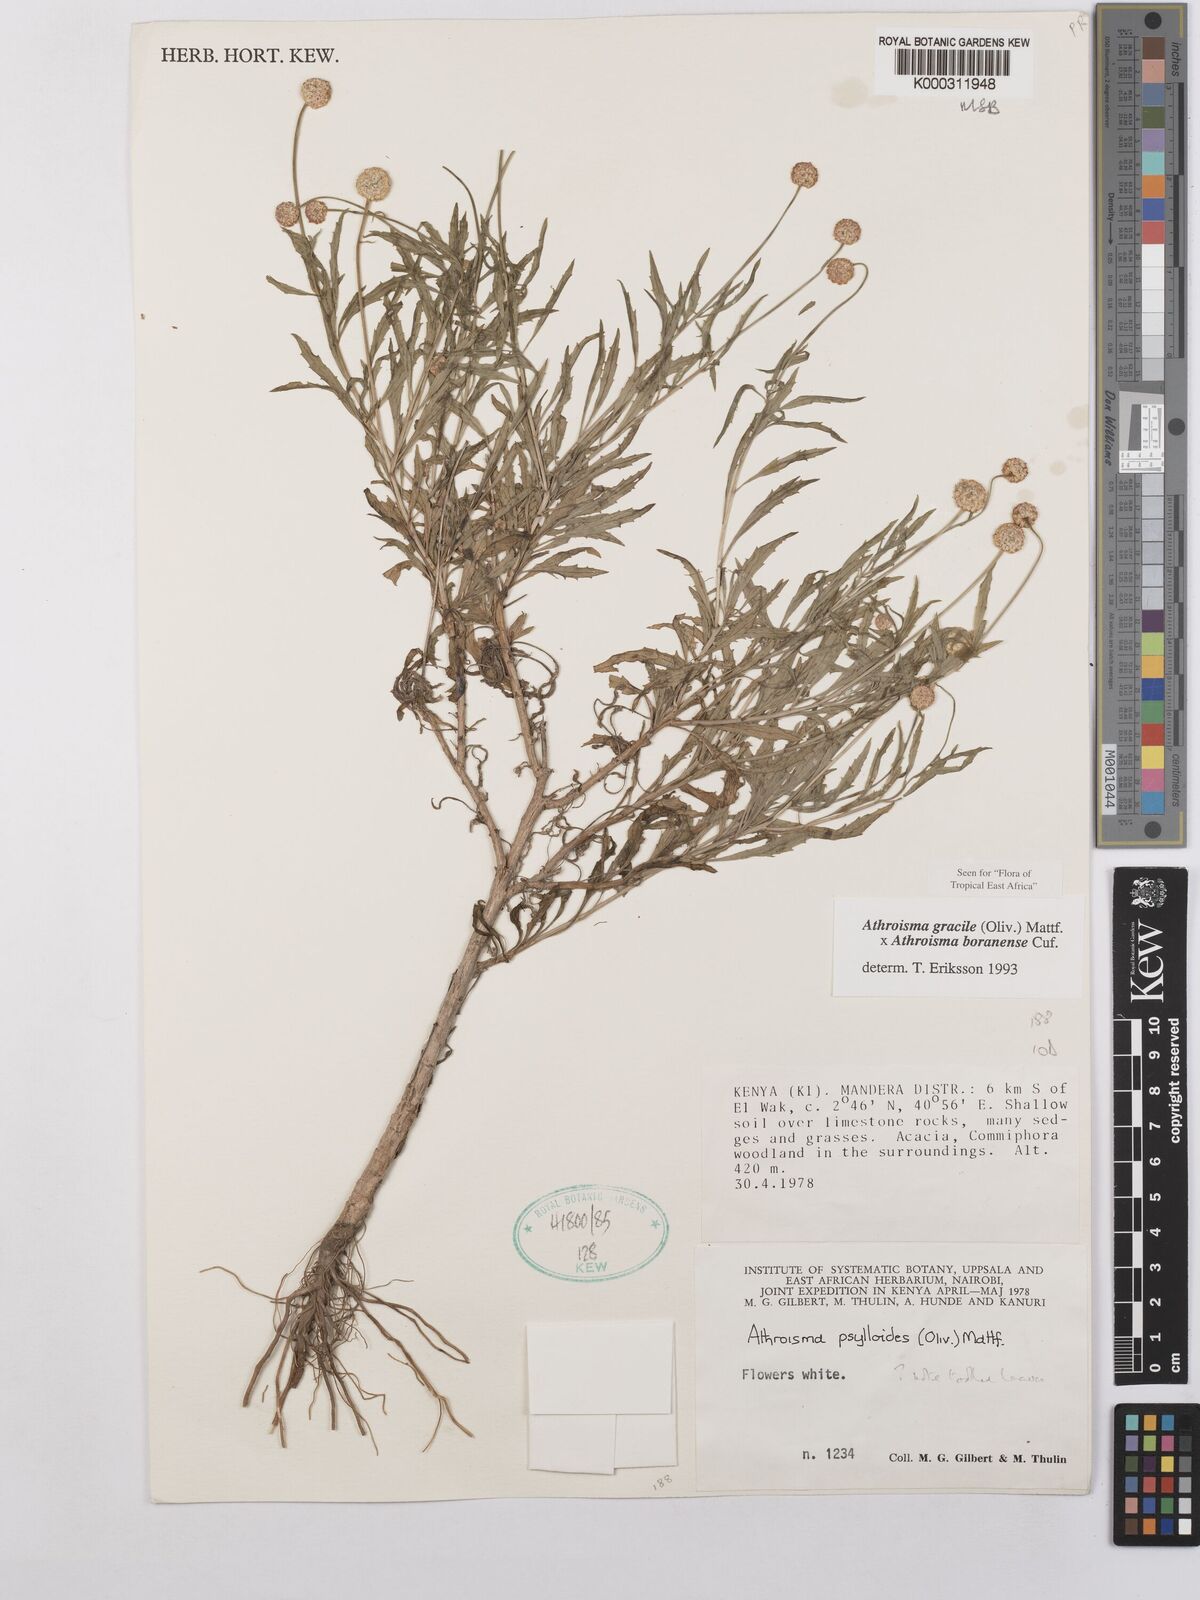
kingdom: Plantae
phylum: Tracheophyta
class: Magnoliopsida
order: Asterales
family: Asteraceae
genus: Athroisma
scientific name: Athroisma
